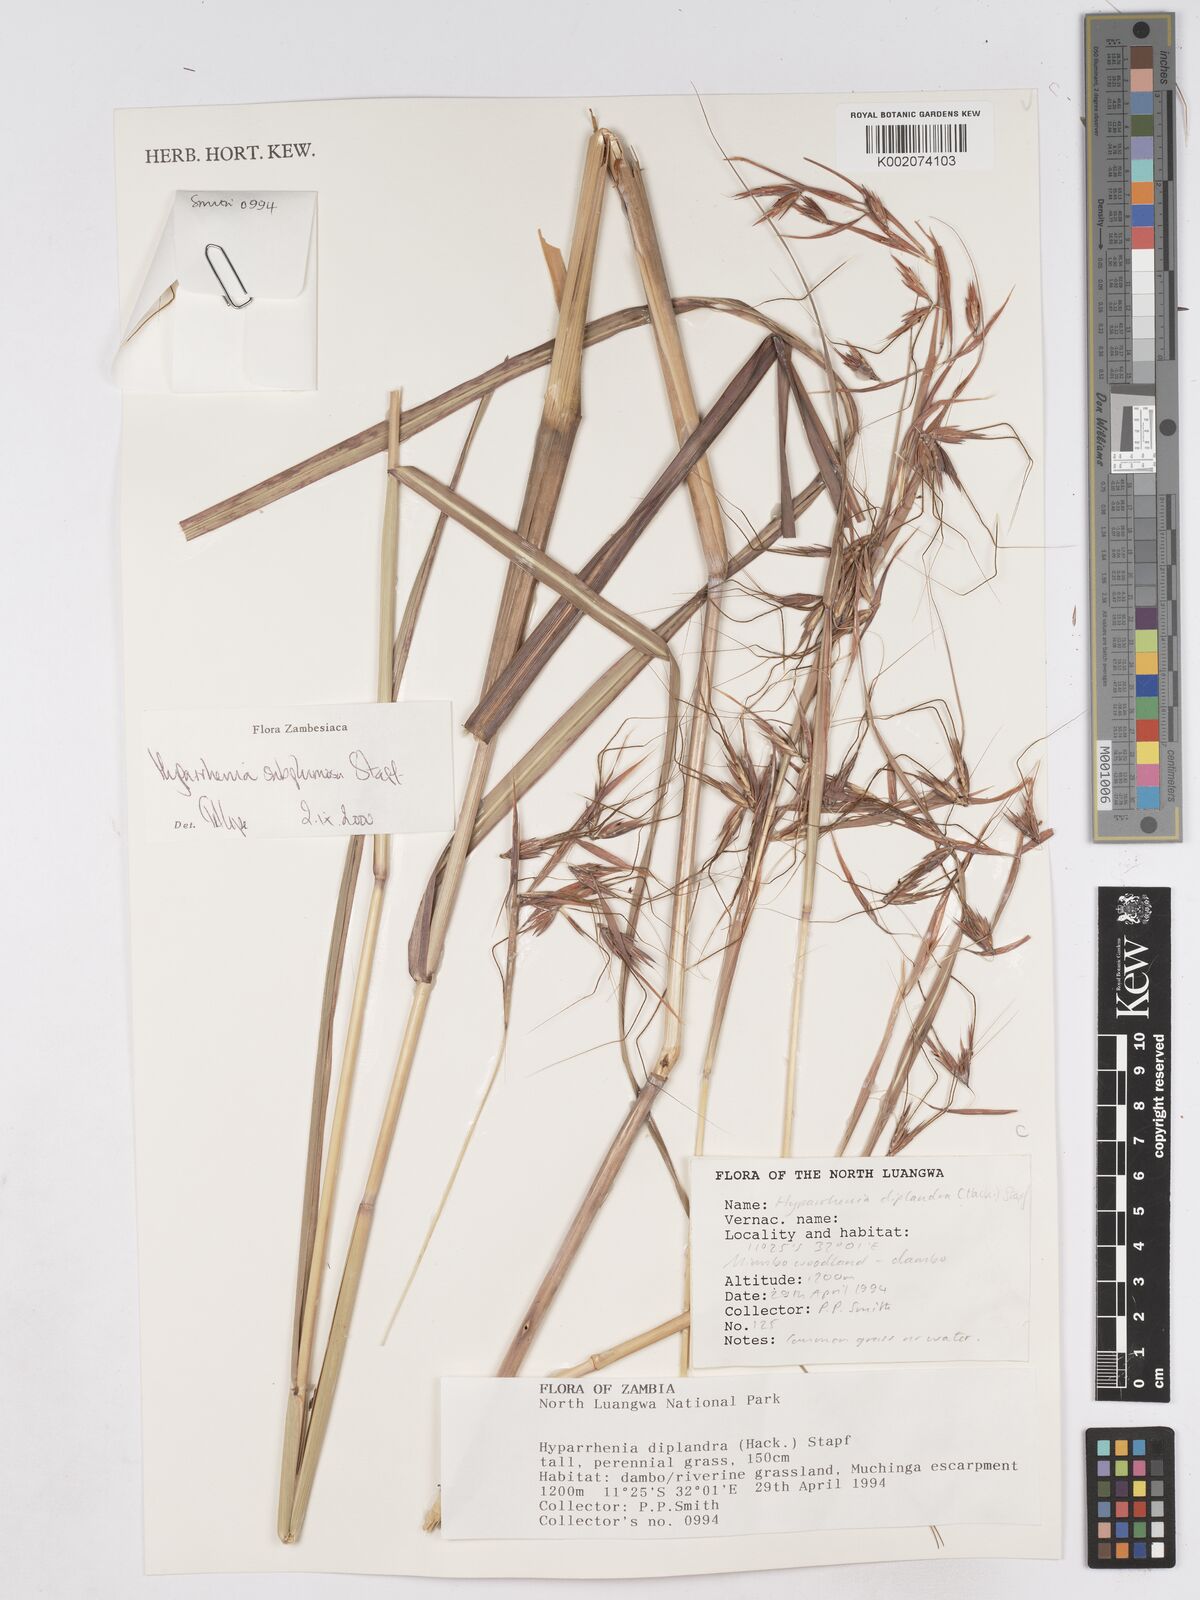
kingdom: Plantae
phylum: Tracheophyta
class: Liliopsida
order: Poales
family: Poaceae
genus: Hyparrhenia
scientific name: Hyparrhenia subplumosa
